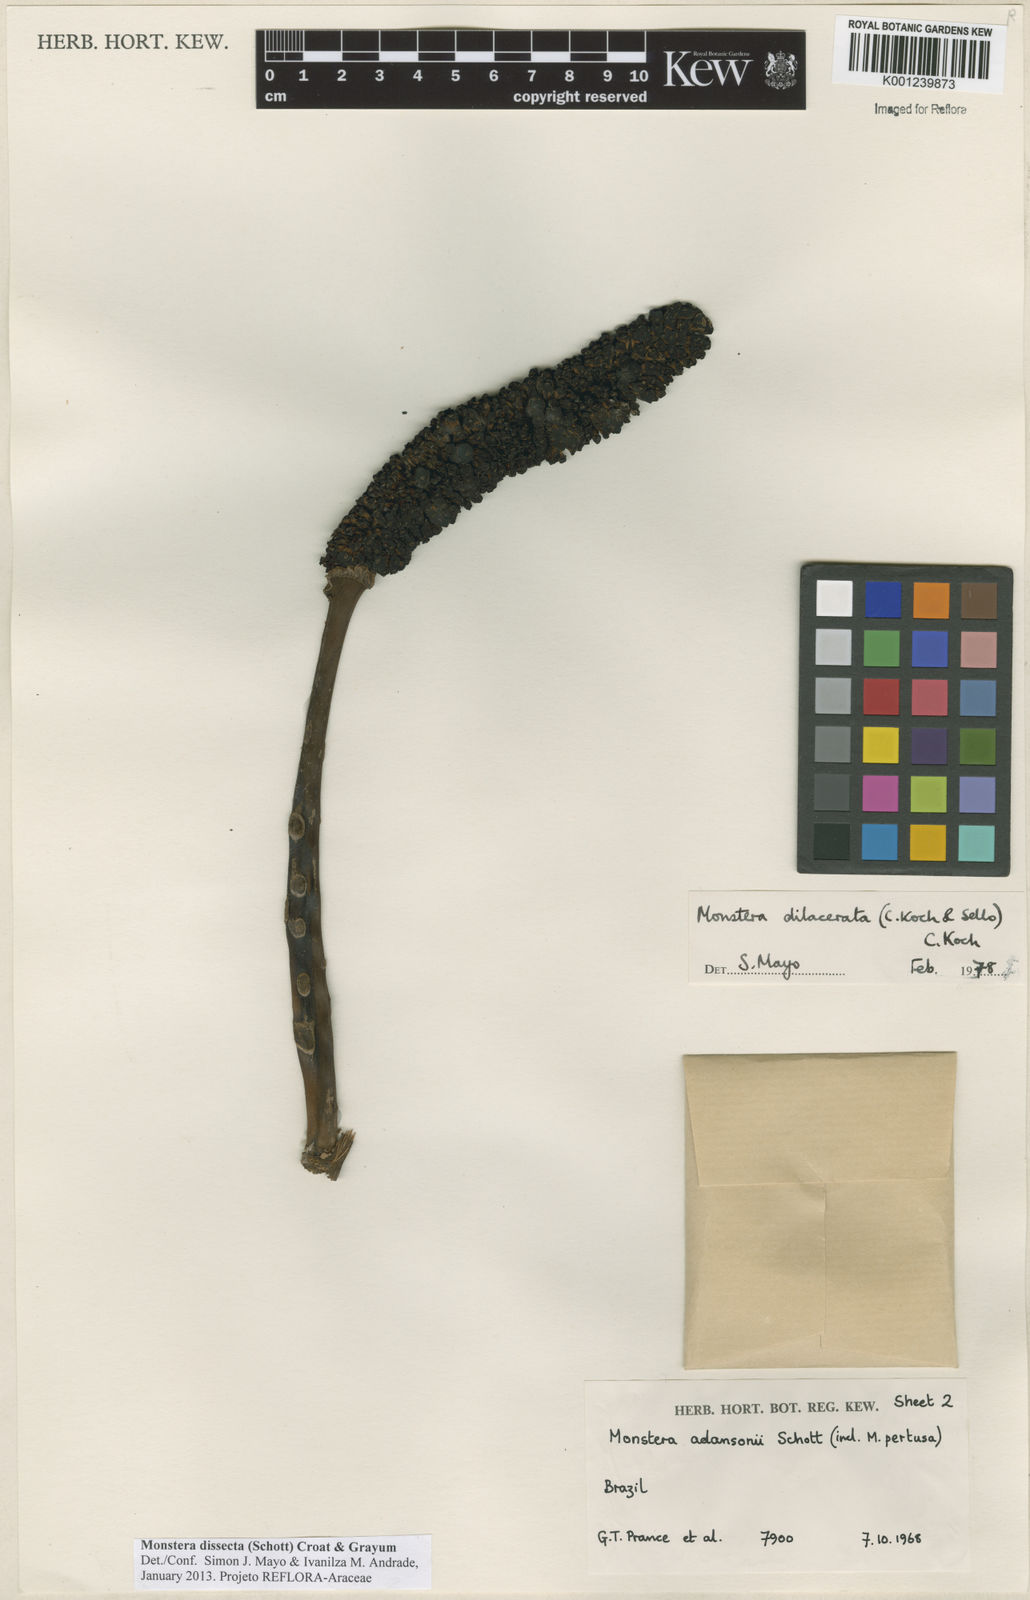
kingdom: Plantae
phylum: Tracheophyta
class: Liliopsida
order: Alismatales
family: Araceae
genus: Monstera
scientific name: Monstera dissecta
